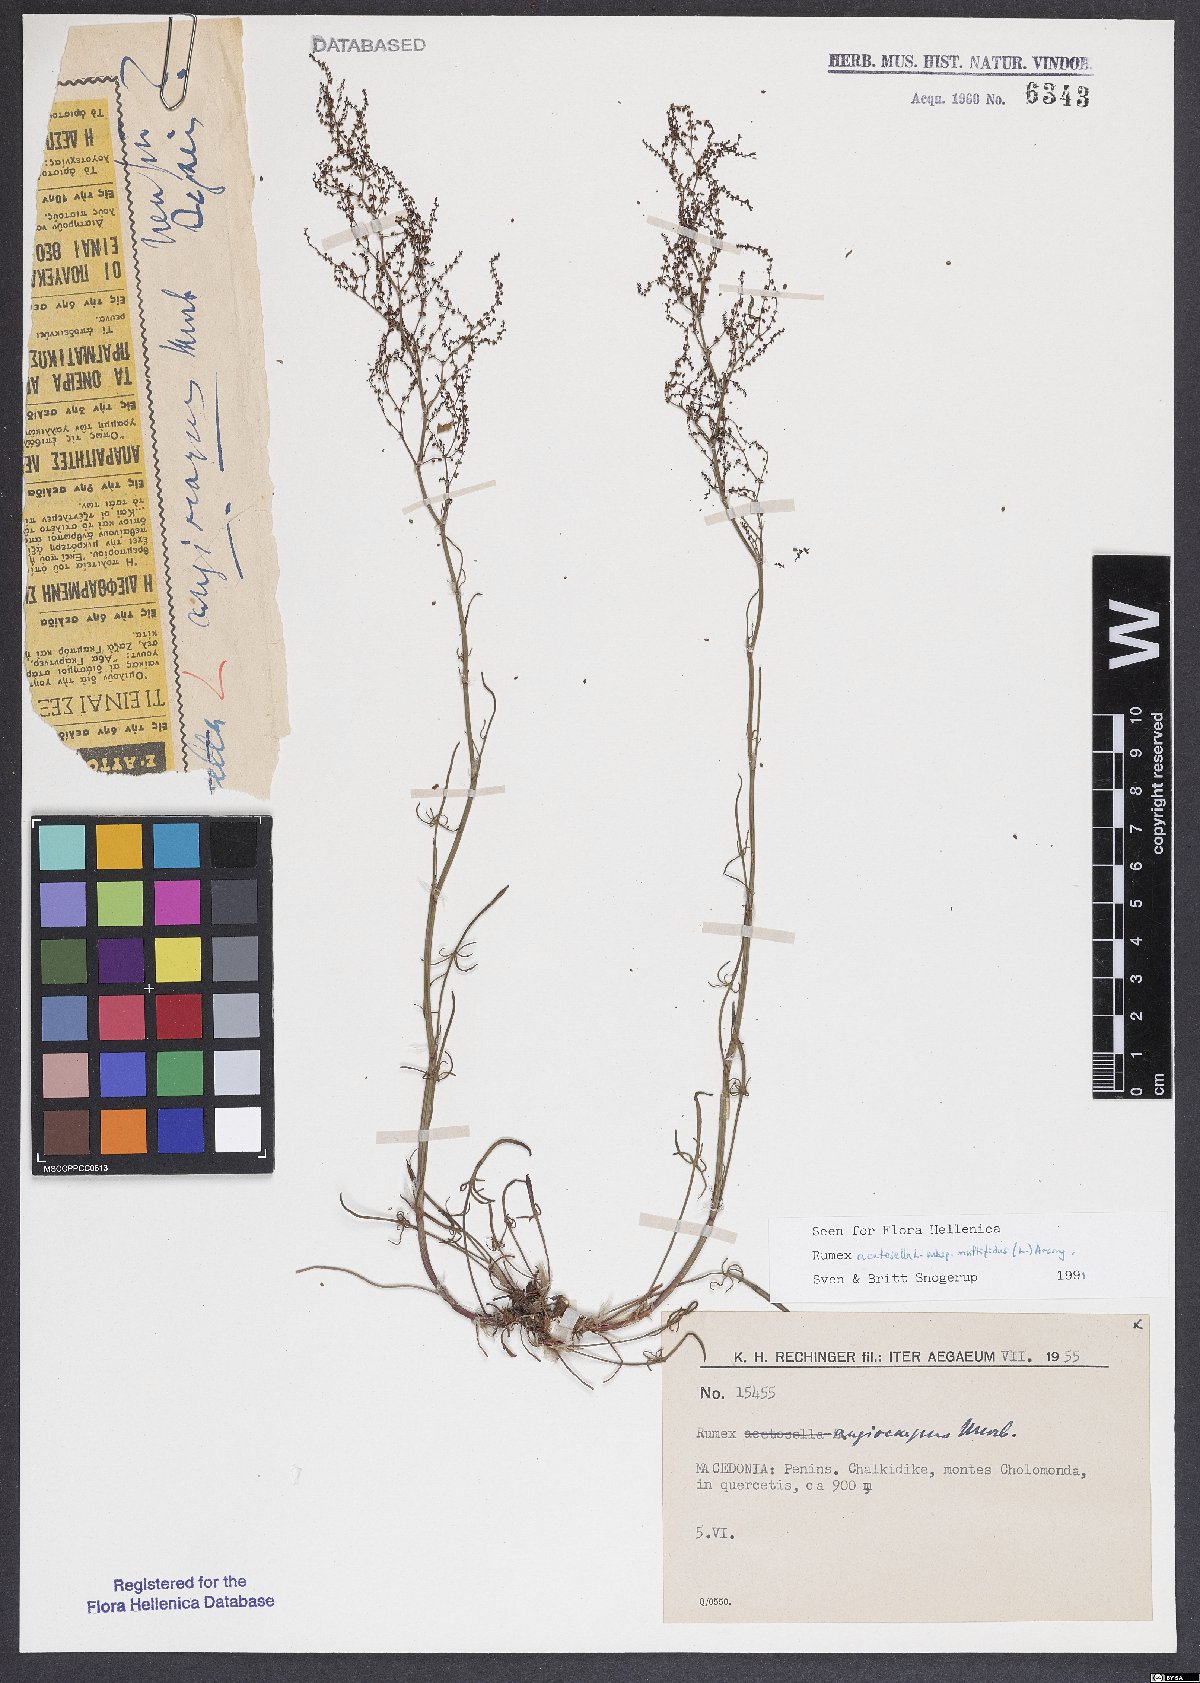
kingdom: Plantae
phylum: Tracheophyta
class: Magnoliopsida
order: Caryophyllales
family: Polygonaceae
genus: Rumex
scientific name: Rumex acetosella
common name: Common sheep sorrel
